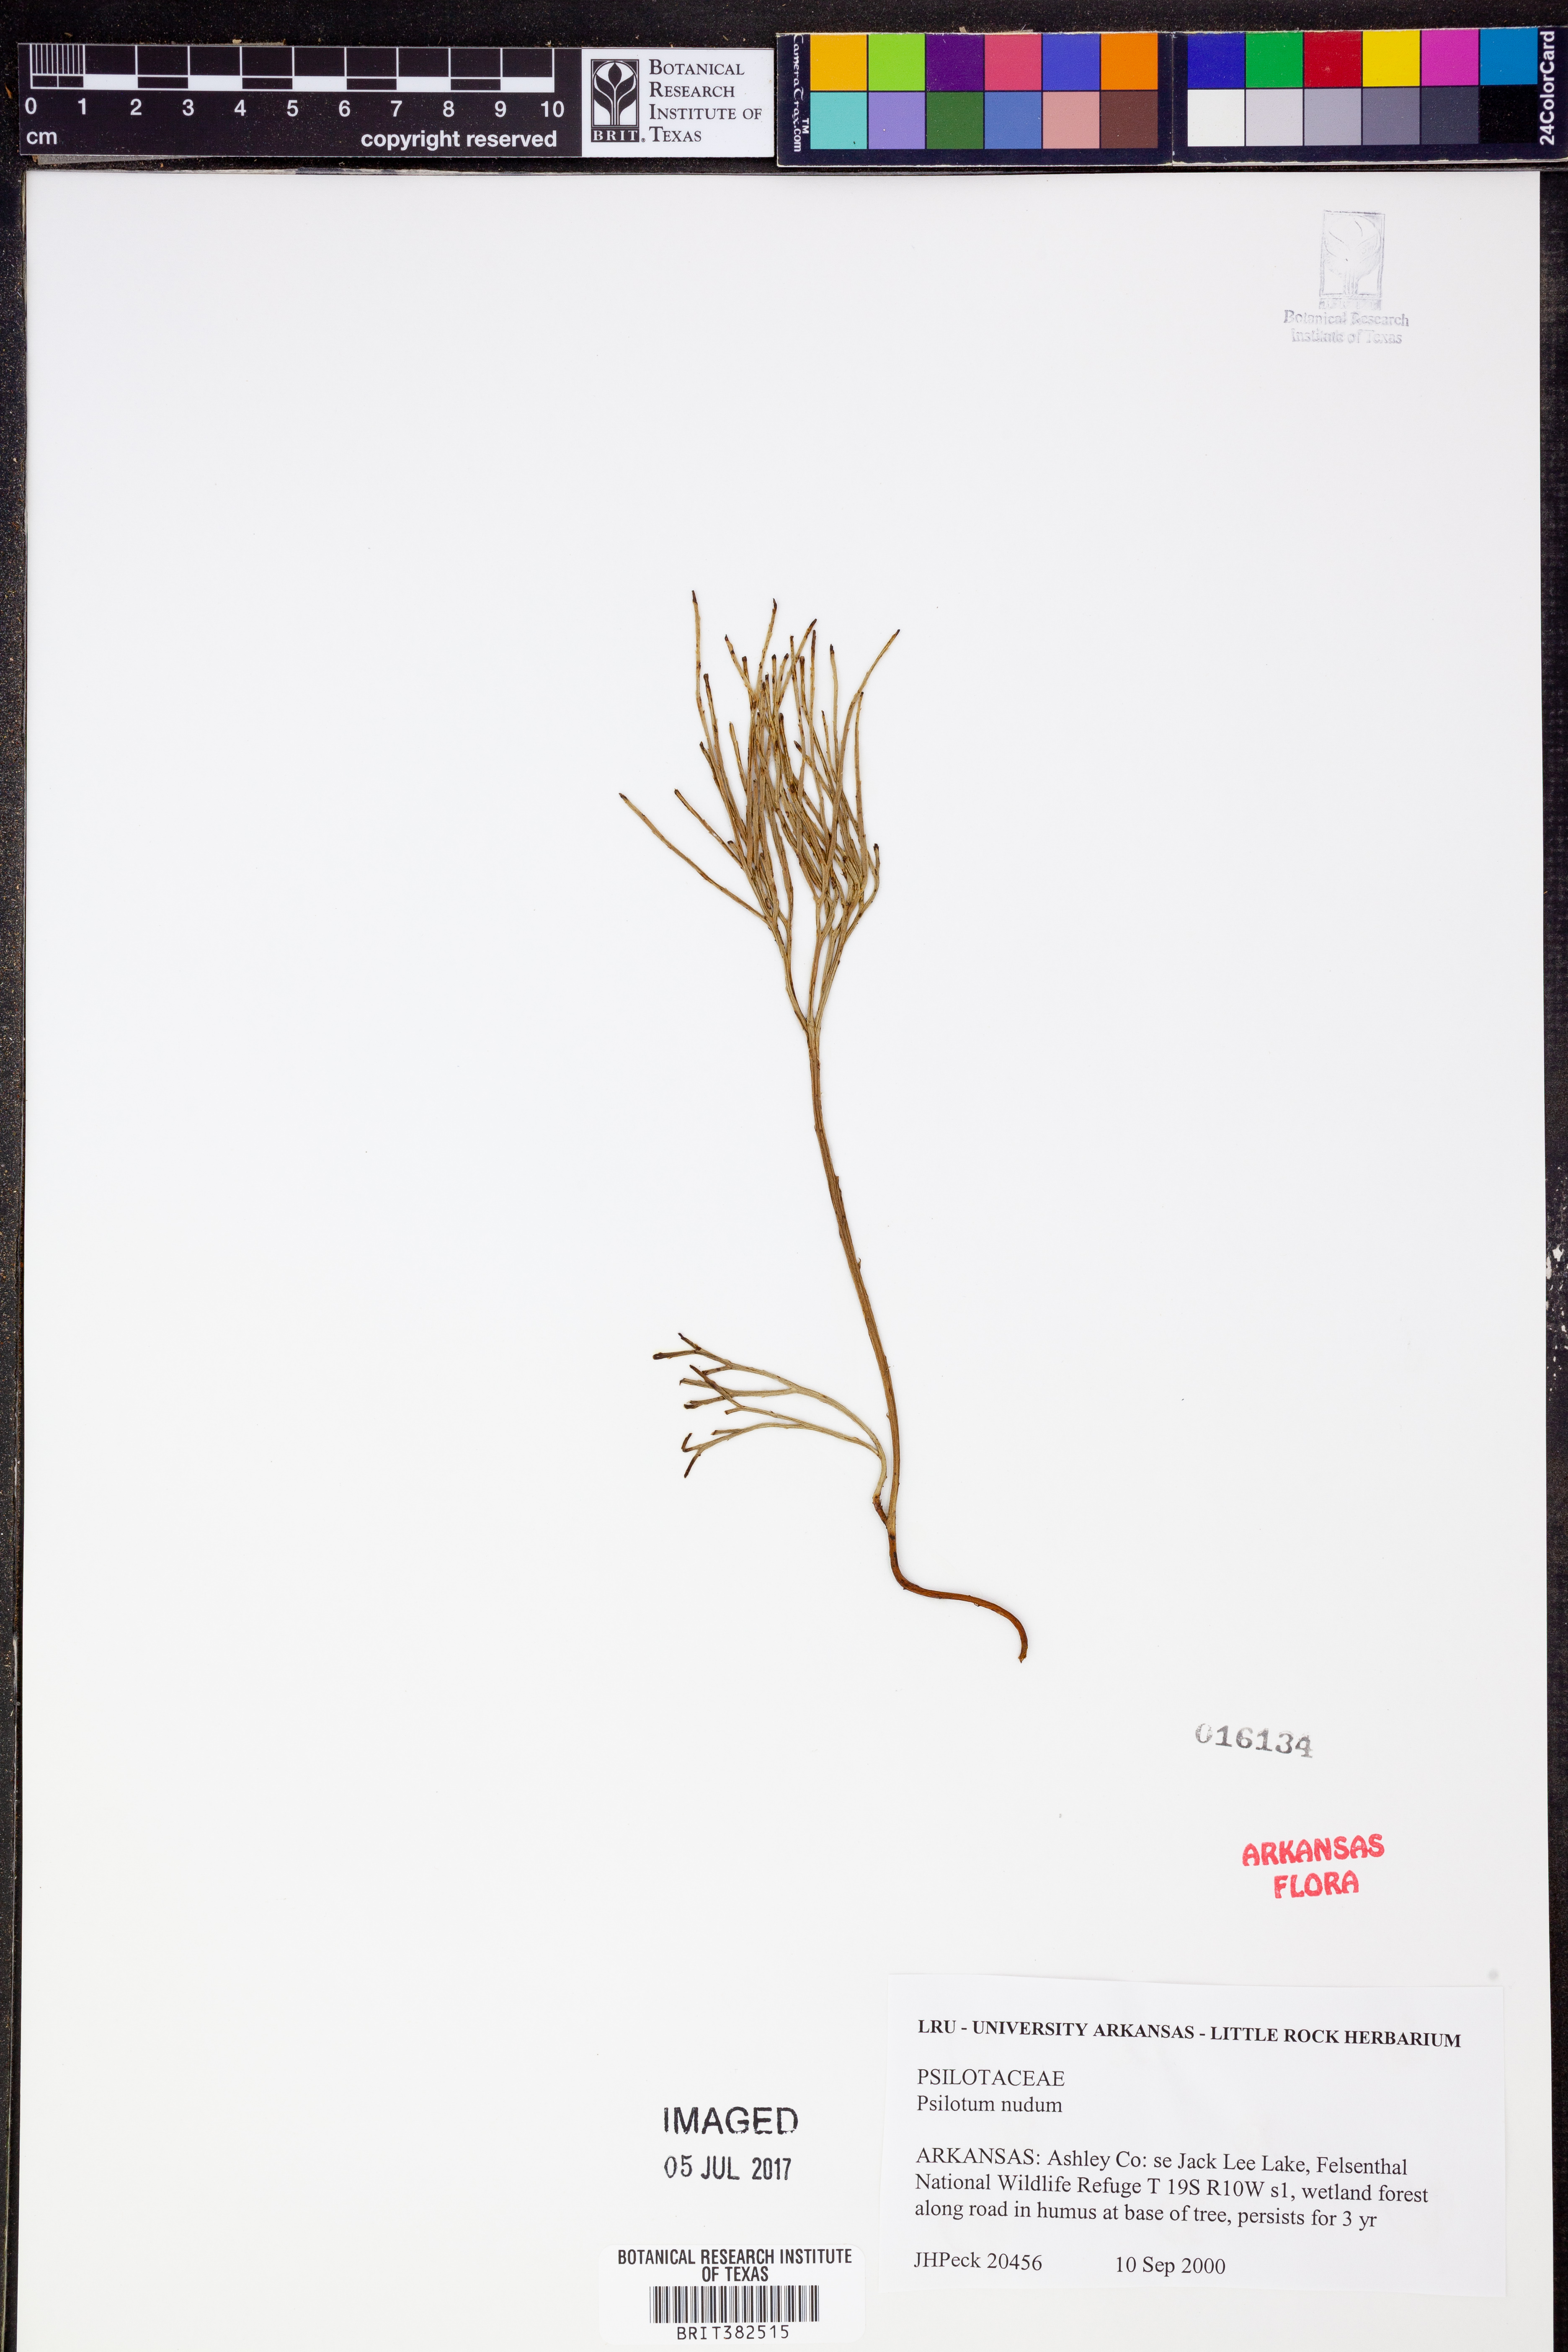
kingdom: Plantae
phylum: Tracheophyta
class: Polypodiopsida
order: Psilotales
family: Psilotaceae
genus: Psilotum
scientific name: Psilotum nudum
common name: Skeleton fork fern
